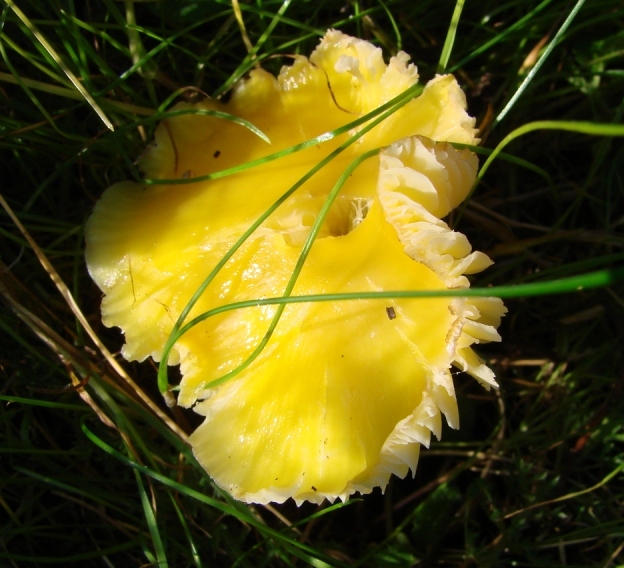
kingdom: Fungi
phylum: Basidiomycota
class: Agaricomycetes
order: Agaricales
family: Hygrophoraceae
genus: Hygrocybe
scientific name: Hygrocybe chlorophana
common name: gul vokshat
